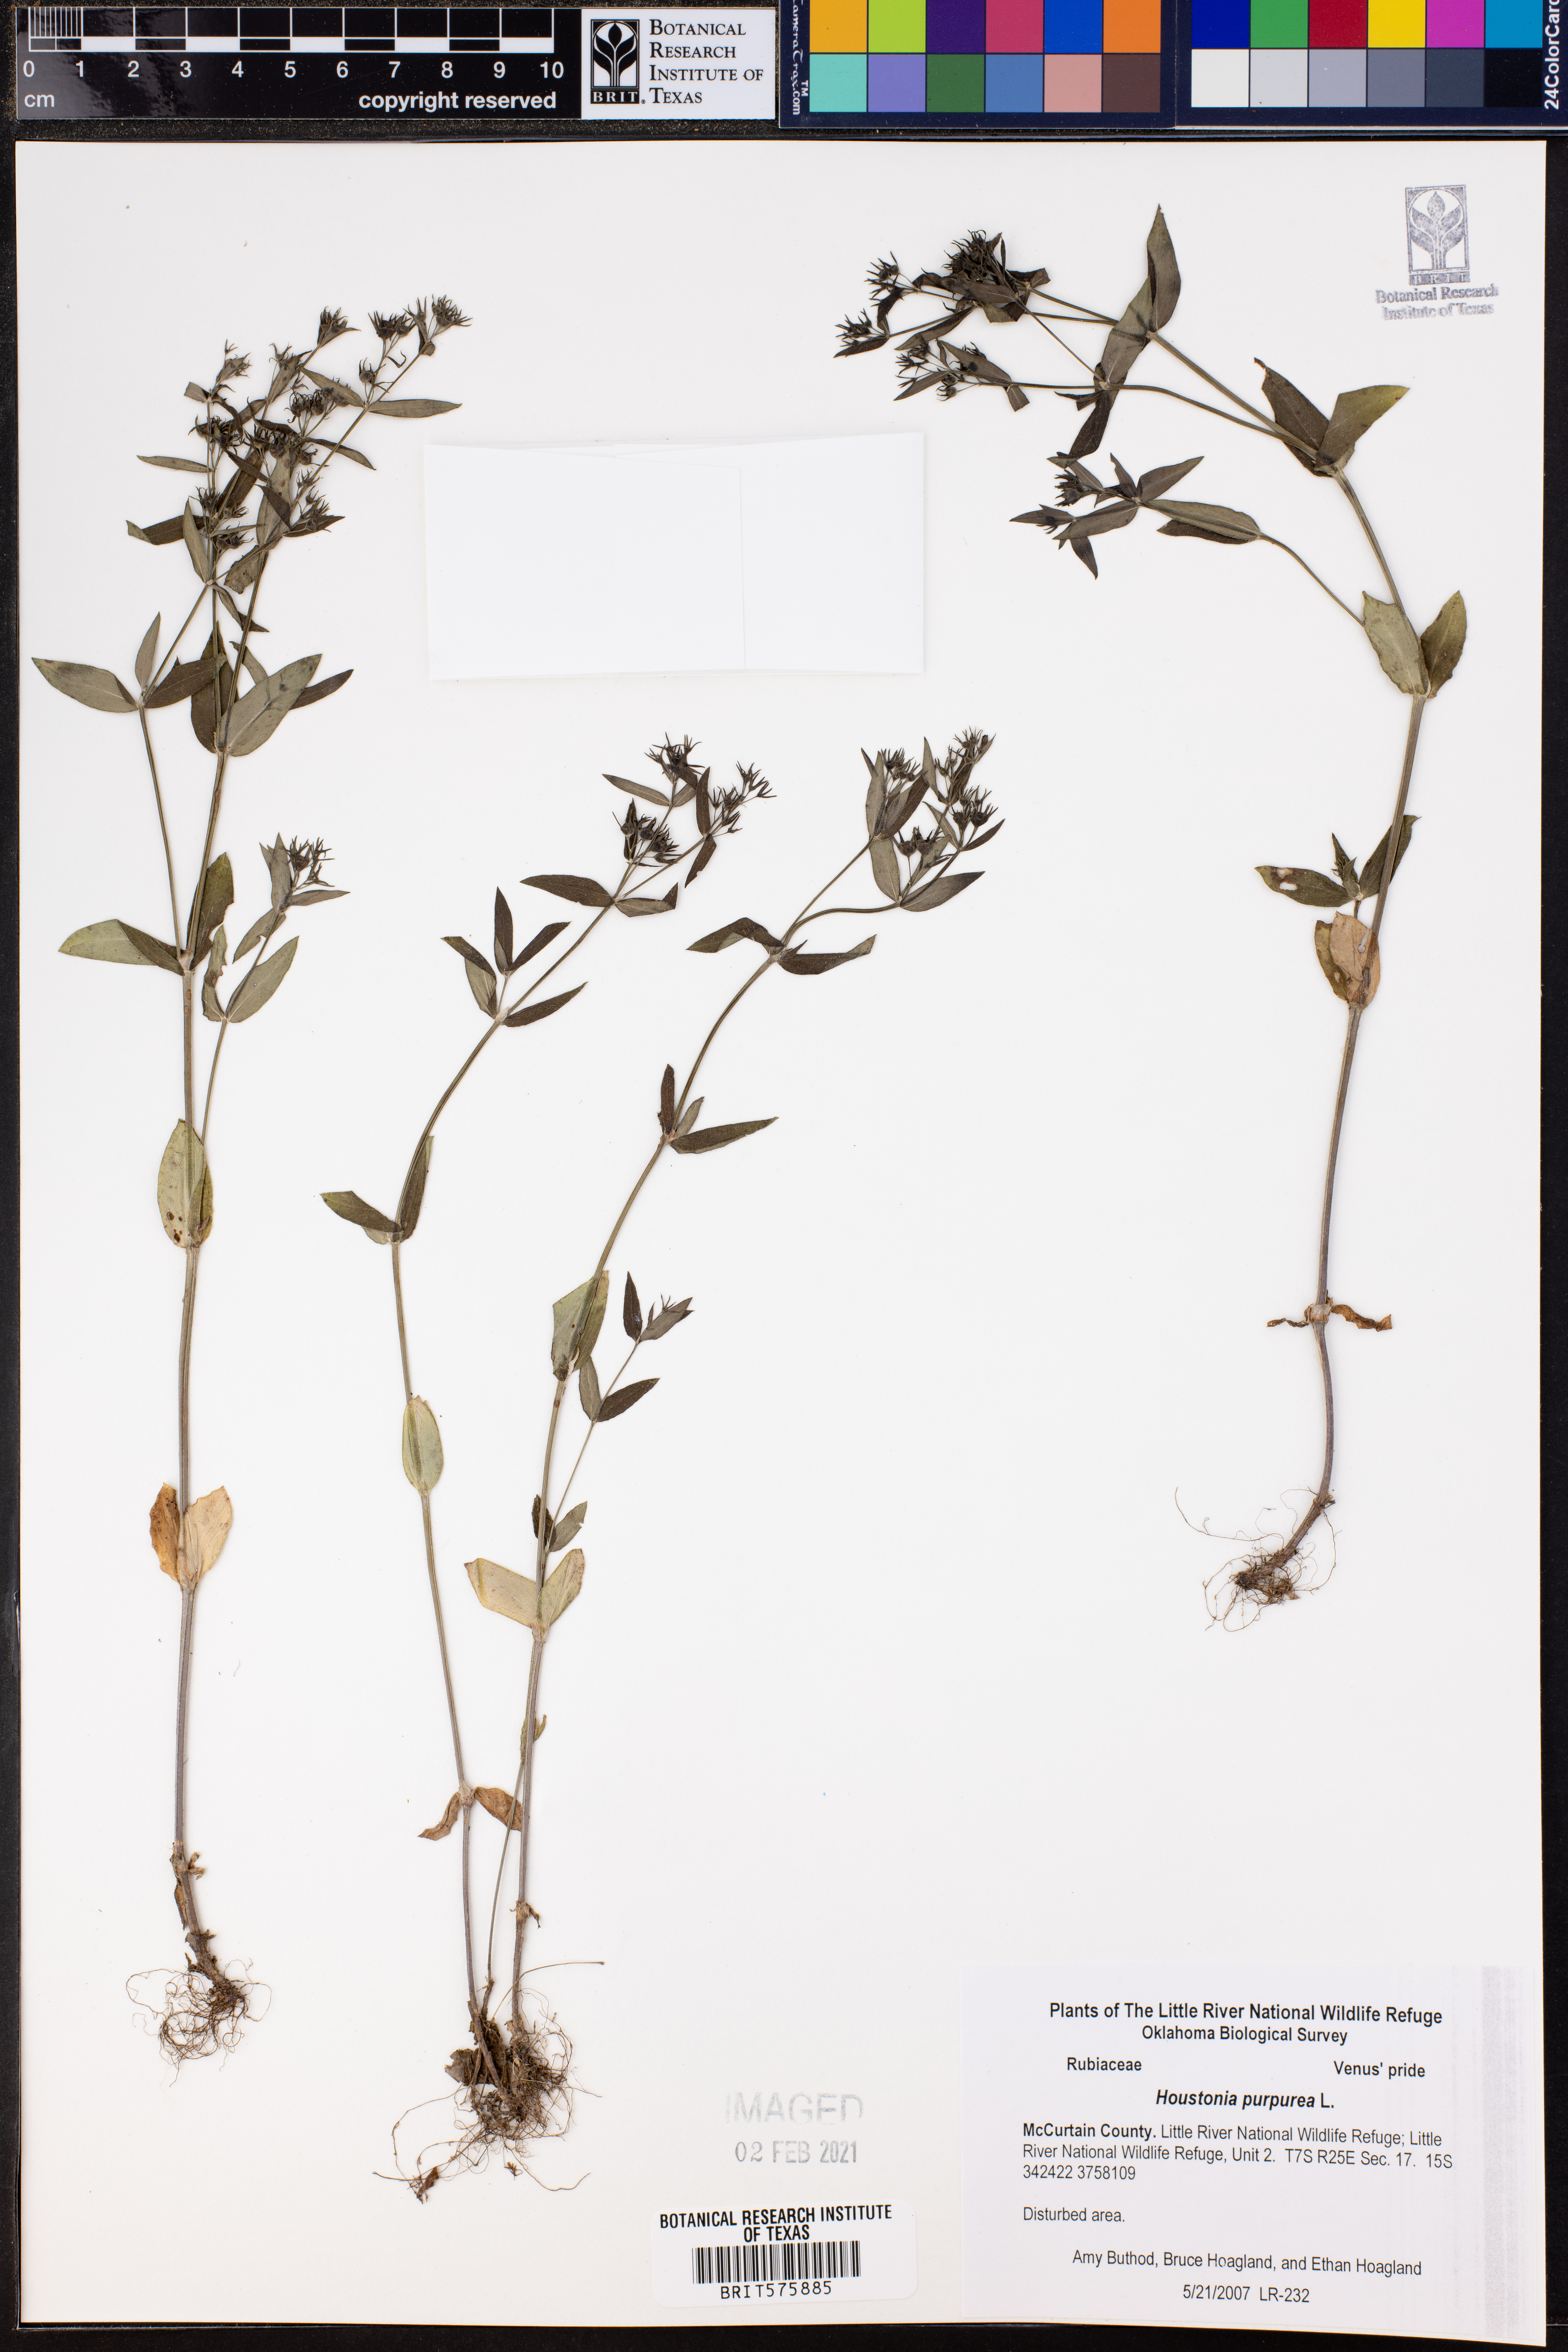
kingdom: Plantae
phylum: Tracheophyta
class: Magnoliopsida
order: Gentianales
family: Rubiaceae
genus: Houstonia
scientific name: Houstonia purpurea
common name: Summer bluet
